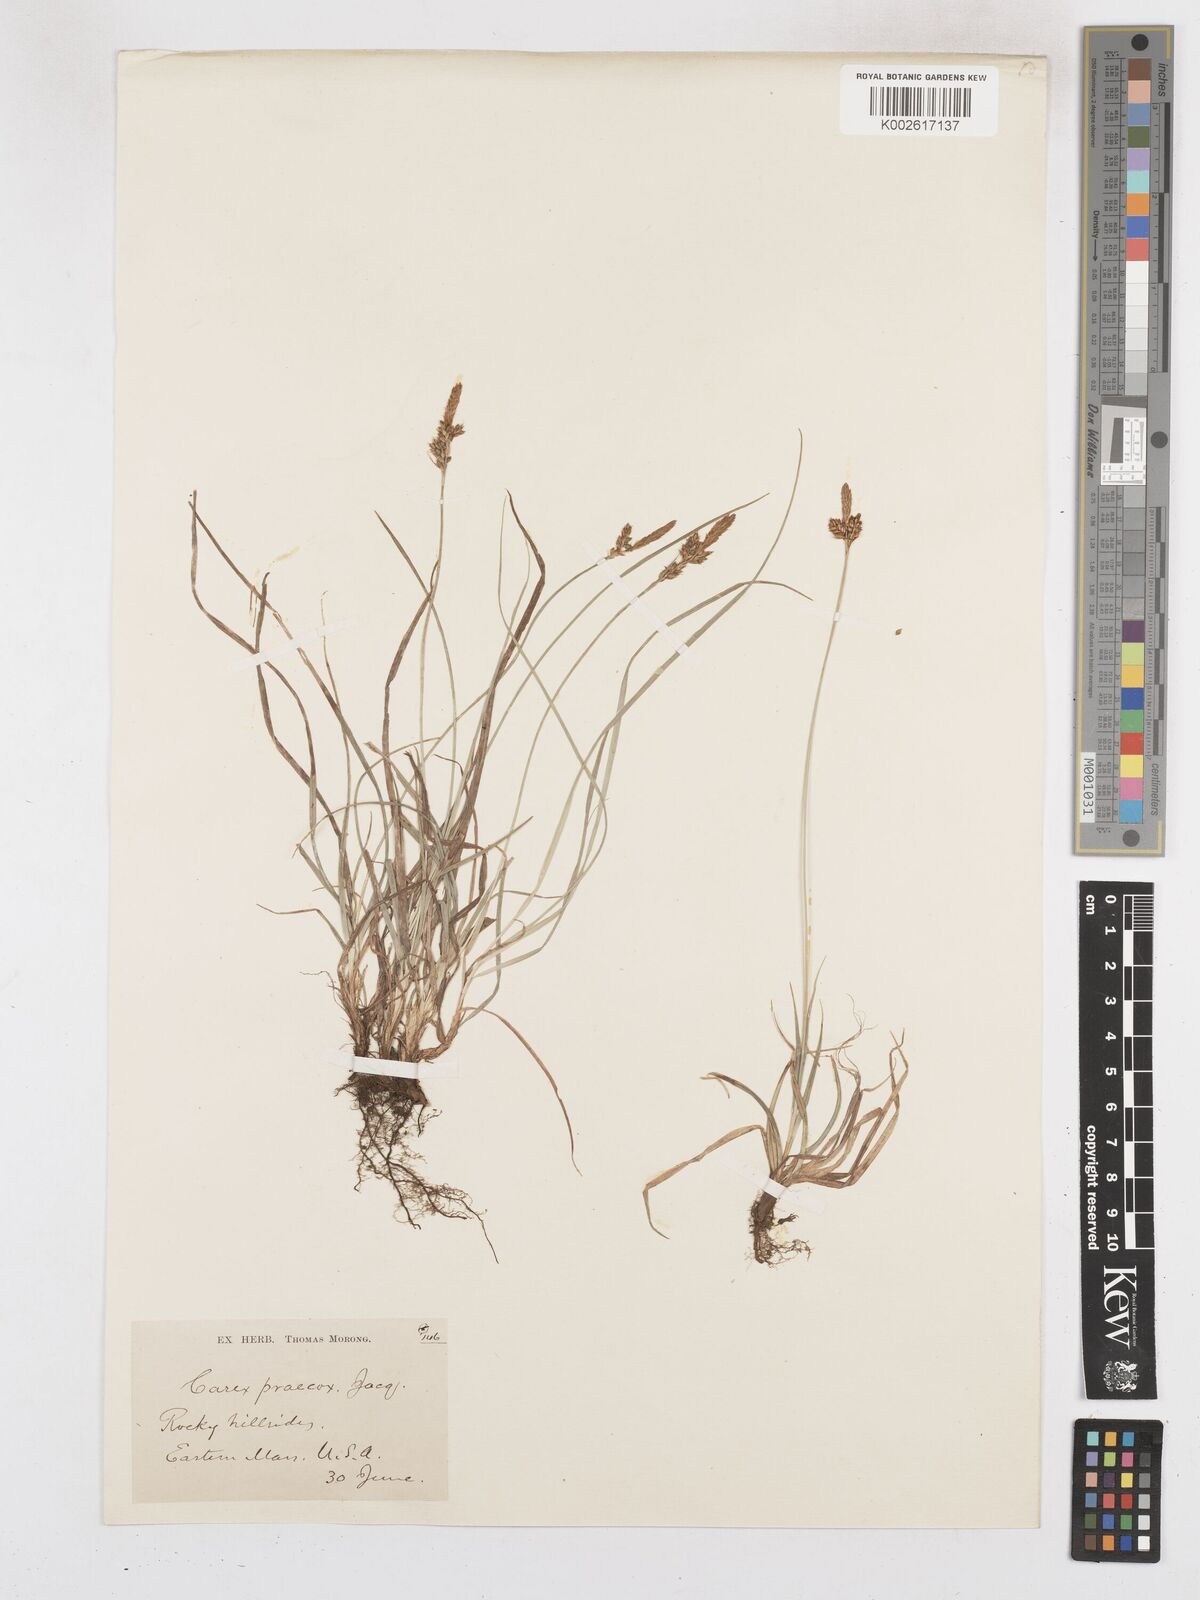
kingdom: Plantae
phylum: Tracheophyta
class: Liliopsida
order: Poales
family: Cyperaceae
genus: Carex
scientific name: Carex caryophyllea
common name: Spring sedge
